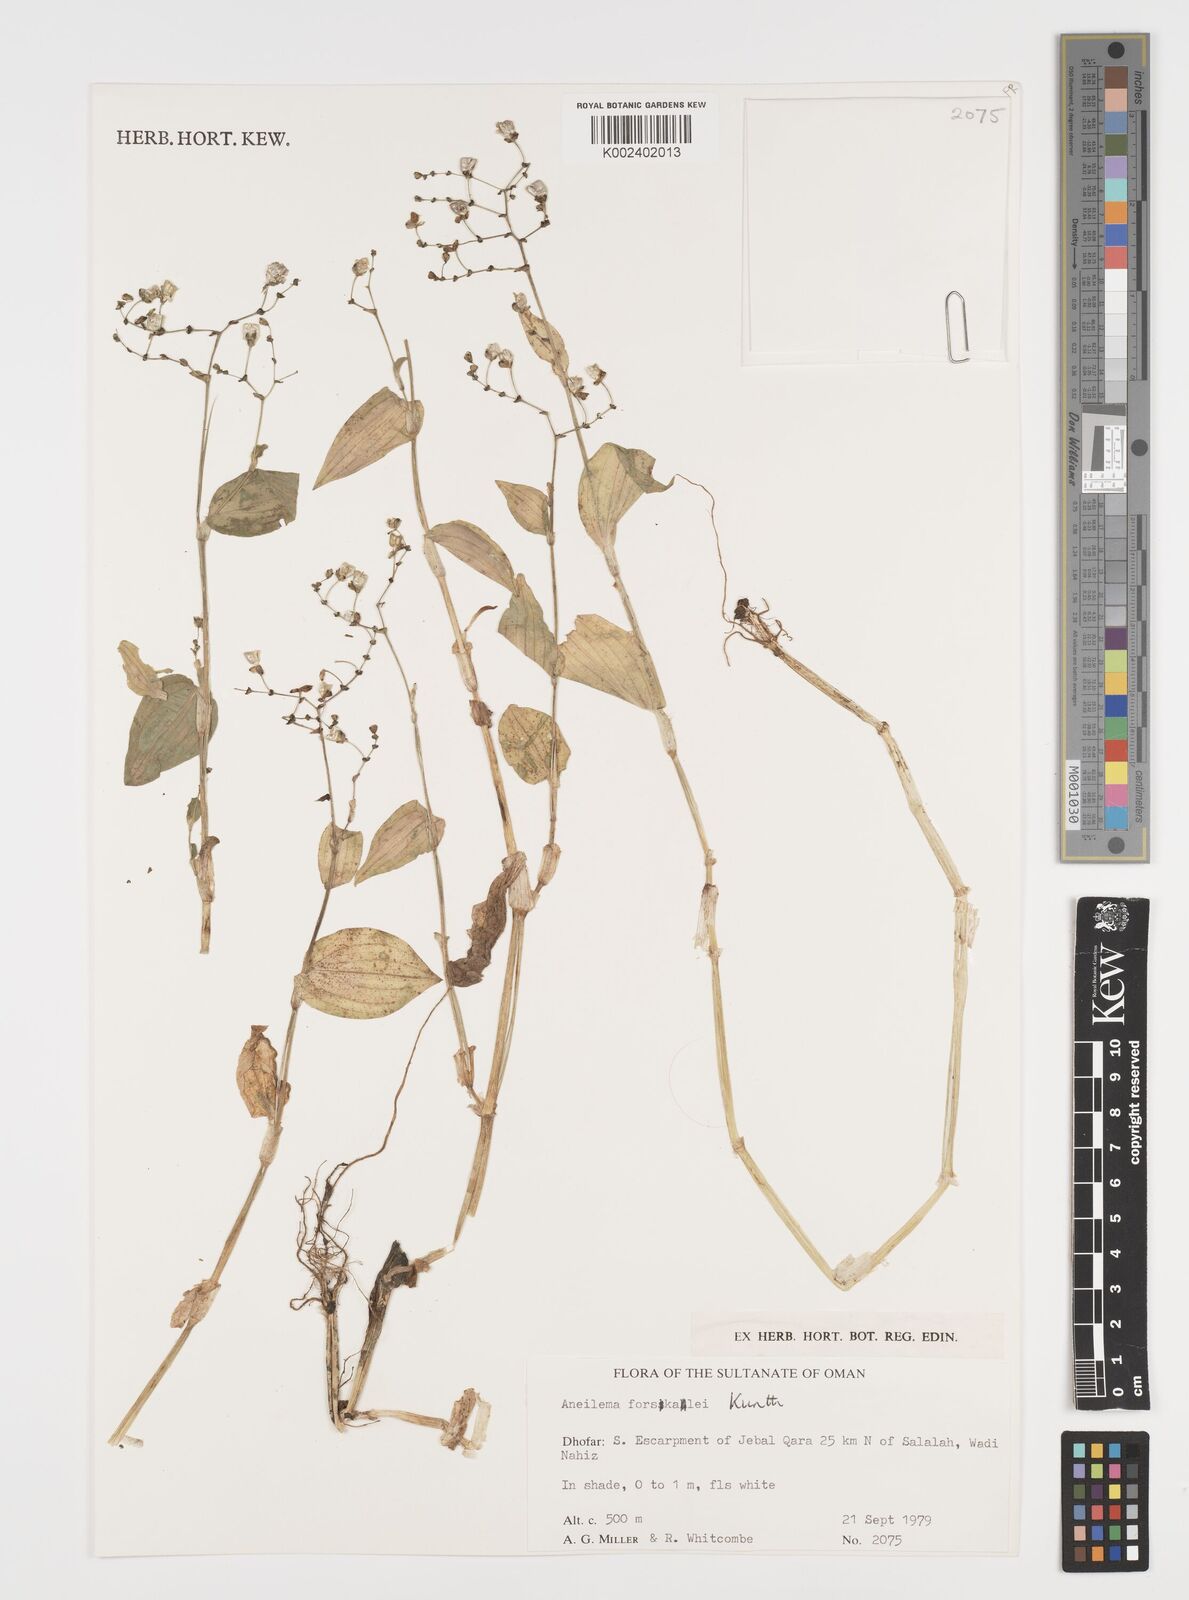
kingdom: Plantae
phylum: Tracheophyta
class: Liliopsida
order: Commelinales
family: Commelinaceae
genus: Aneilema
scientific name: Aneilema forskalii
